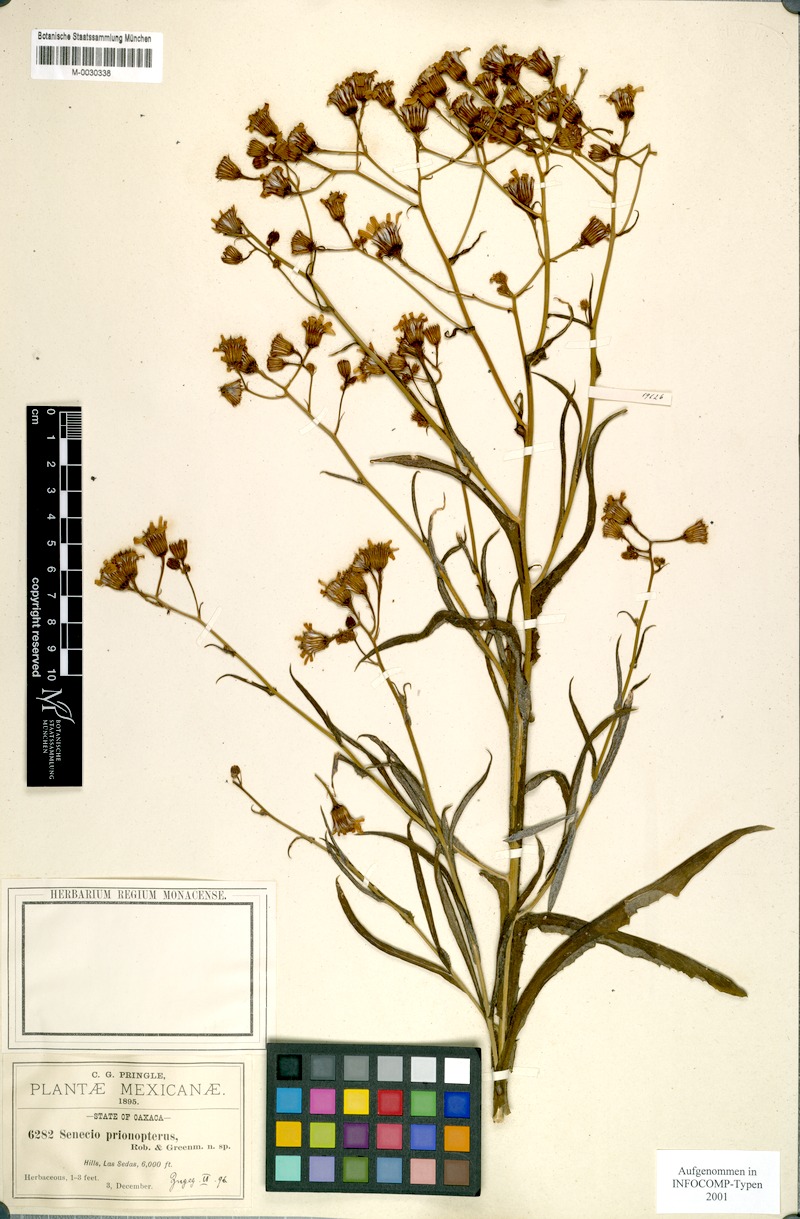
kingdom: Plantae
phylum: Tracheophyta
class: Magnoliopsida
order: Asterales
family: Asteraceae
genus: Senecio
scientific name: Senecio prionopterus
